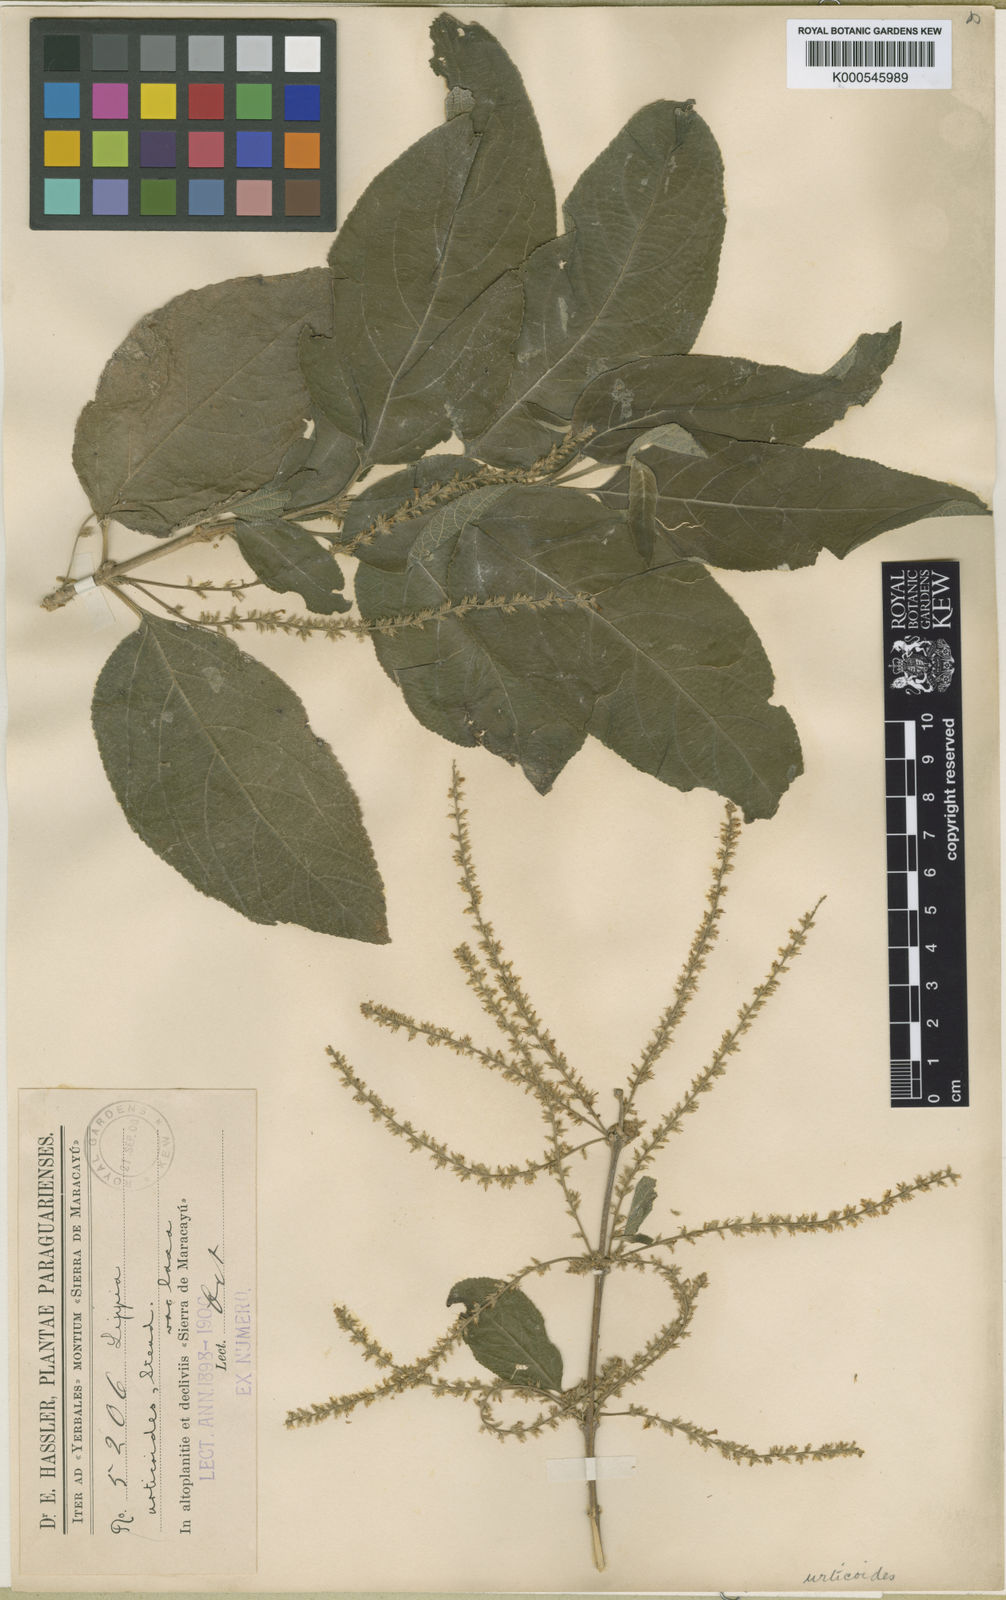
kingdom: Plantae
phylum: Tracheophyta
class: Magnoliopsida
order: Lamiales
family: Verbenaceae
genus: Aloysia
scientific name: Aloysia virgata
